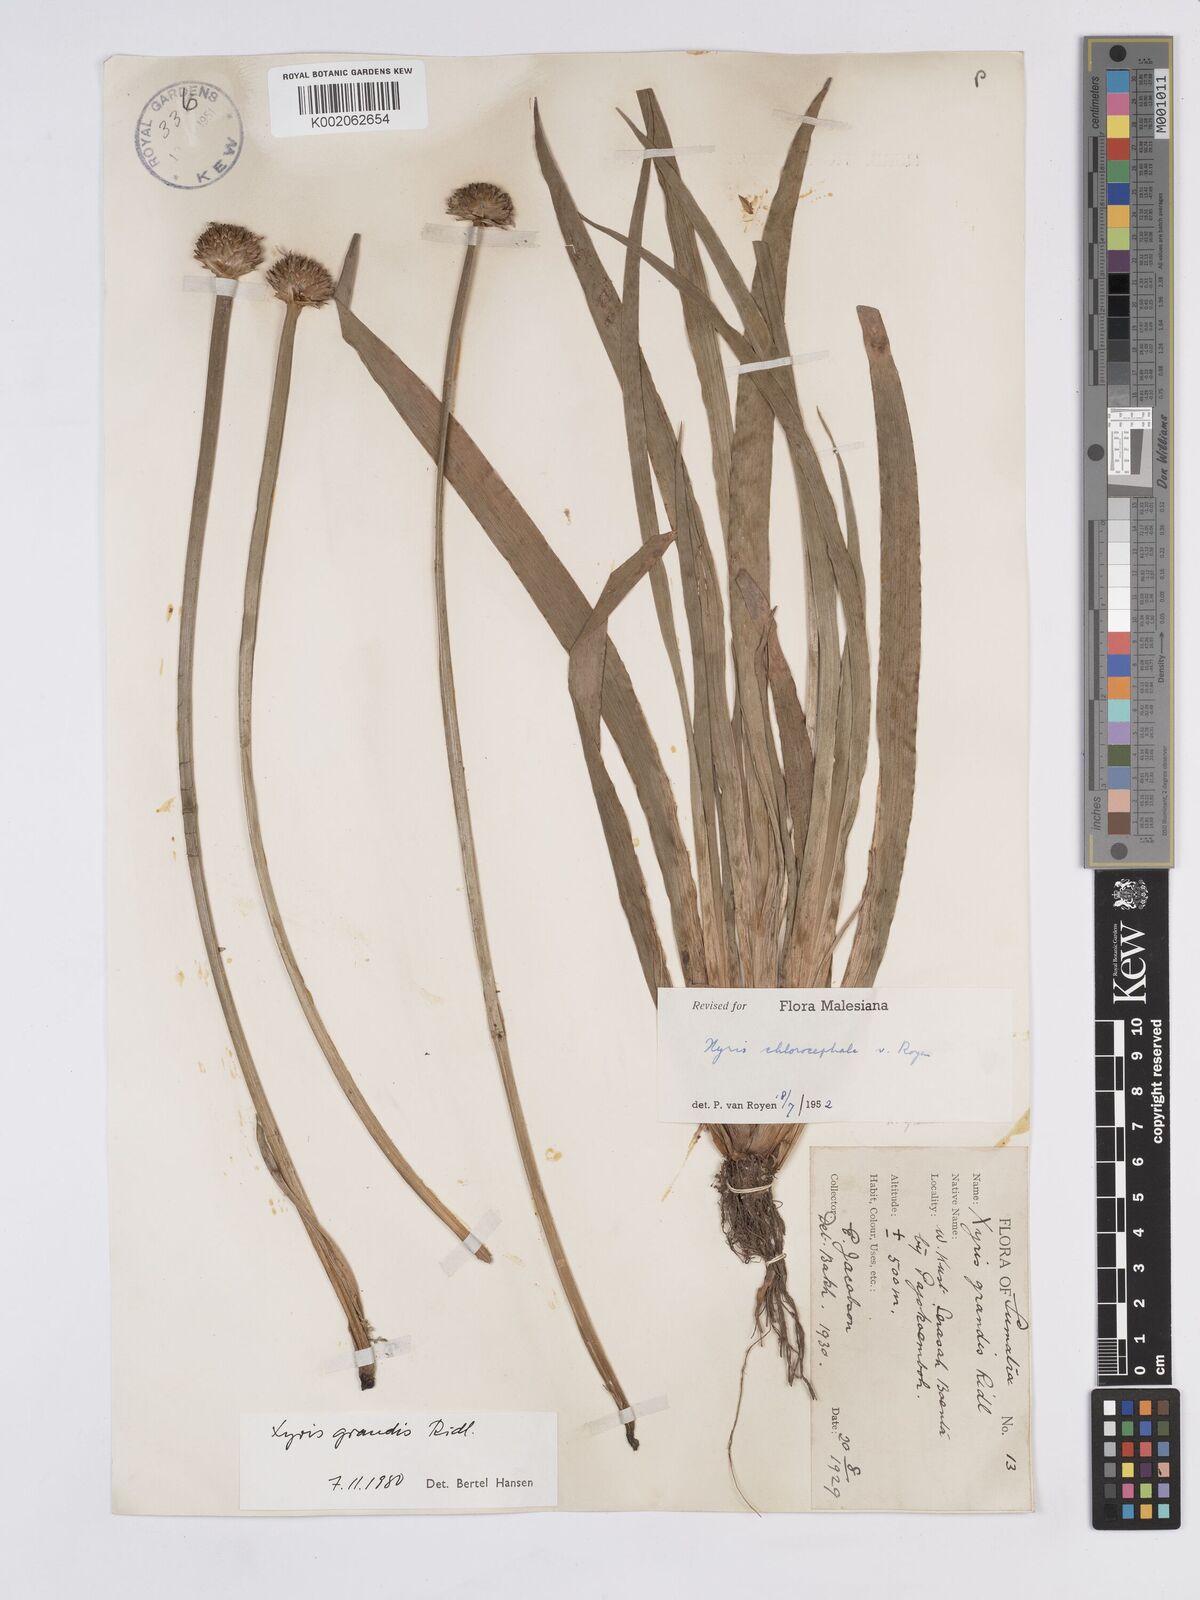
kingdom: Plantae
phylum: Tracheophyta
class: Liliopsida
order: Poales
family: Xyridaceae
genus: Xyris
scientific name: Xyris grandis
